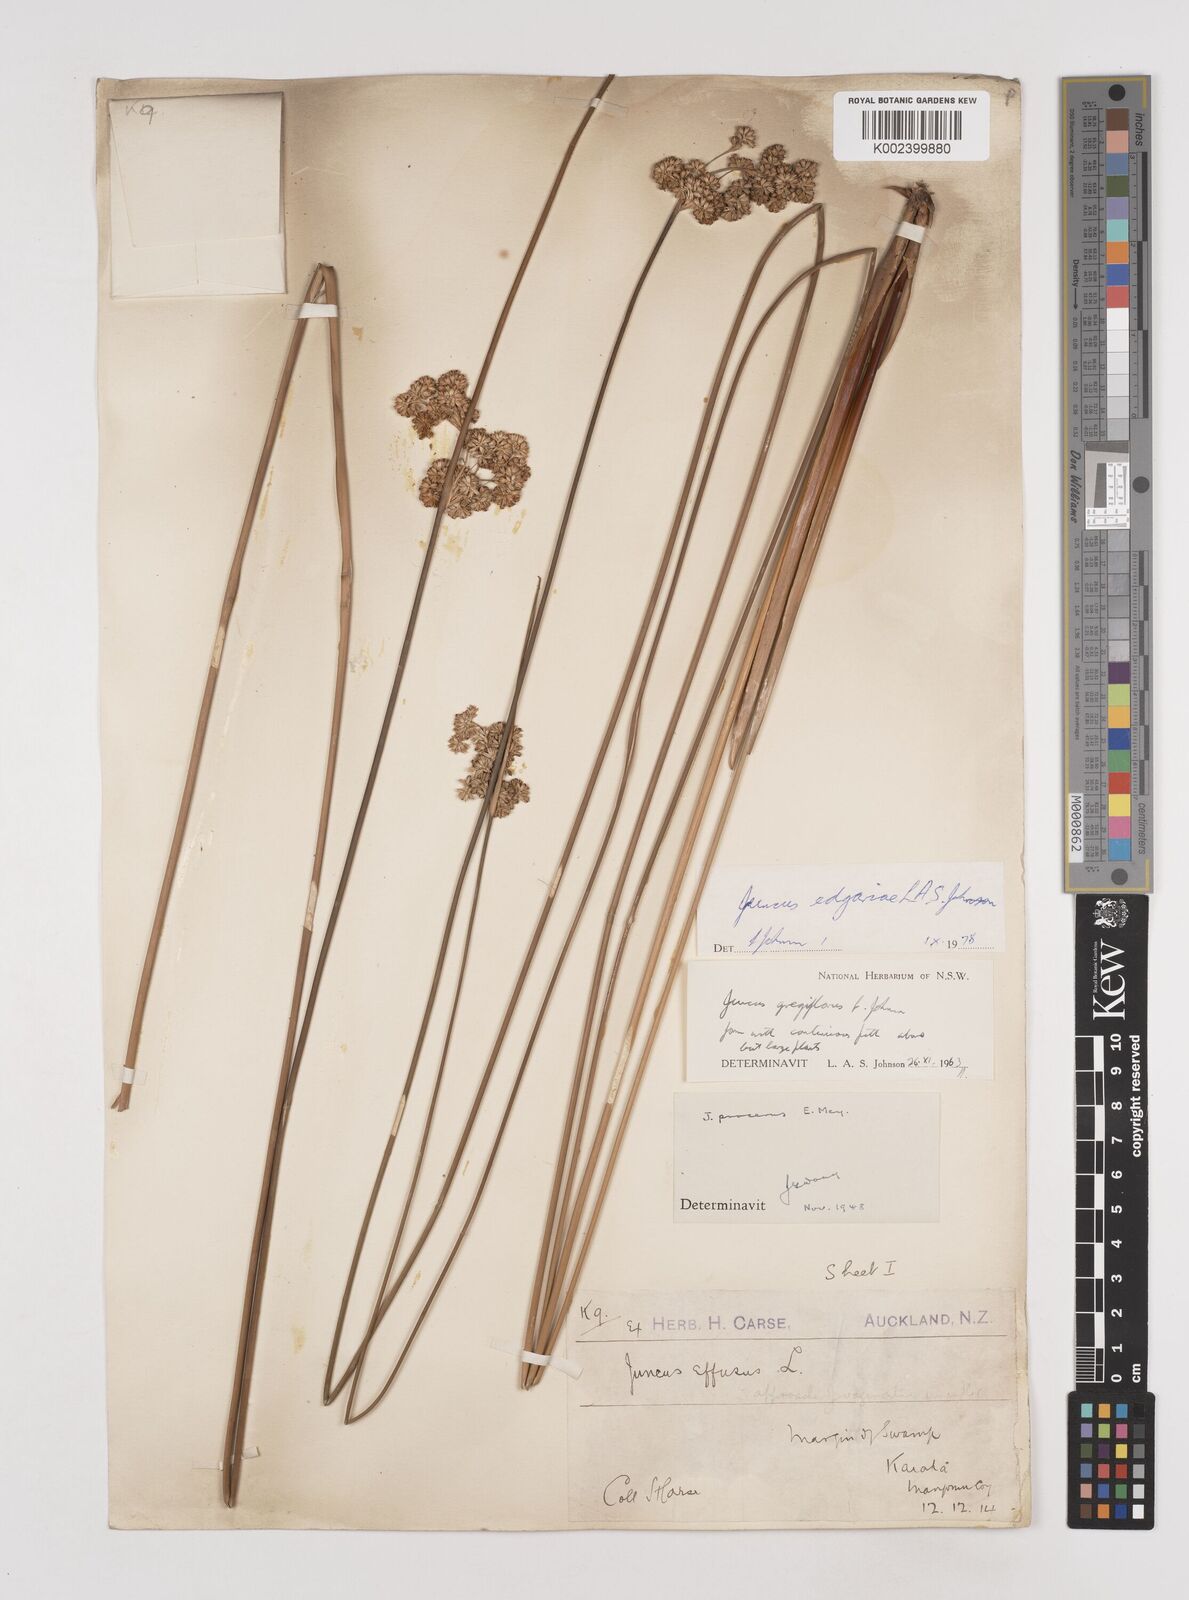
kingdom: Plantae
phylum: Tracheophyta
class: Liliopsida
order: Poales
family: Juncaceae
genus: Juncus
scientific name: Juncus gregiflorus
